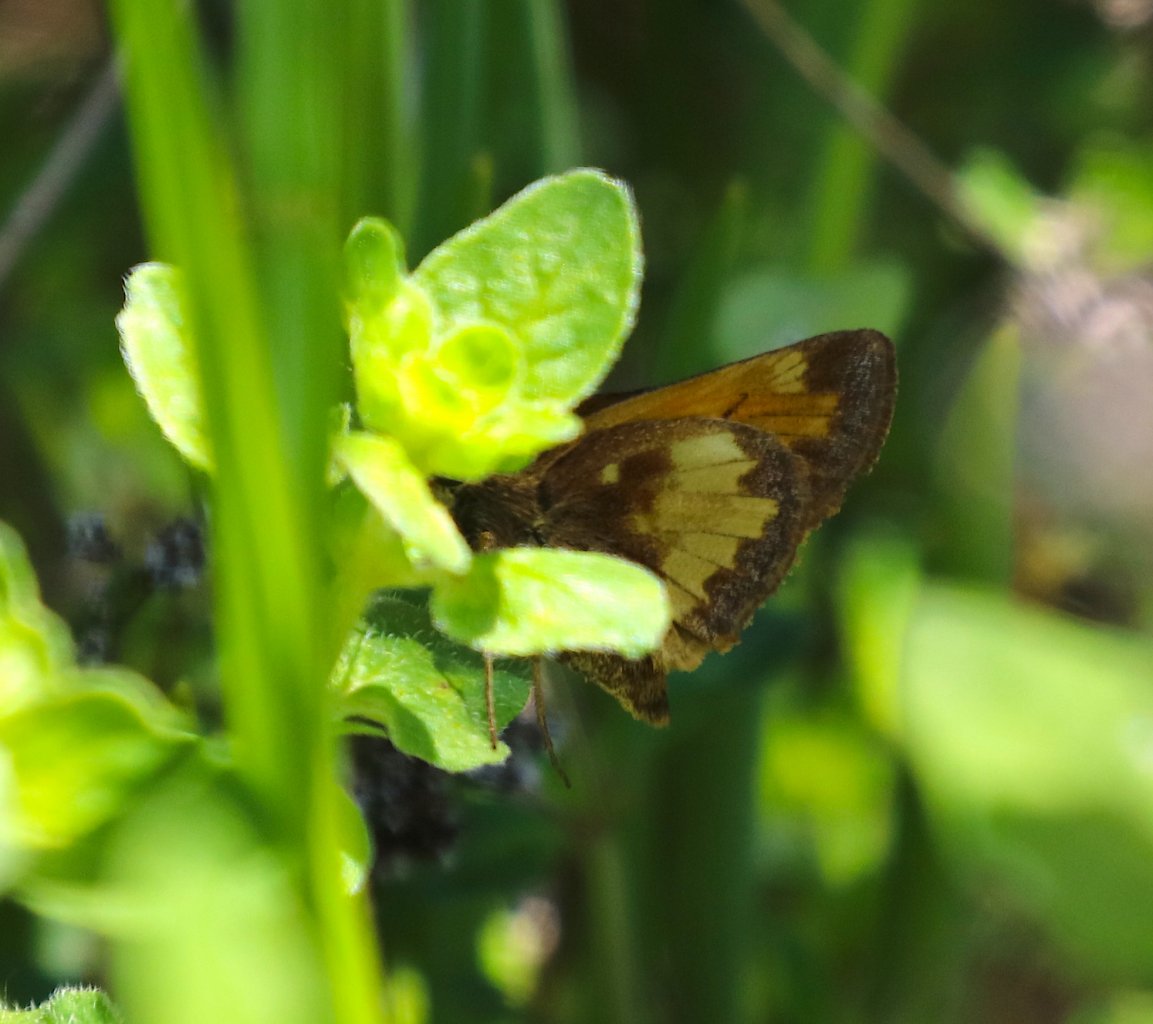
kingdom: Animalia
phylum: Arthropoda
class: Insecta
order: Lepidoptera
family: Hesperiidae
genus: Lon
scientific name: Lon hobomok
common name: Hobomok Skipper
